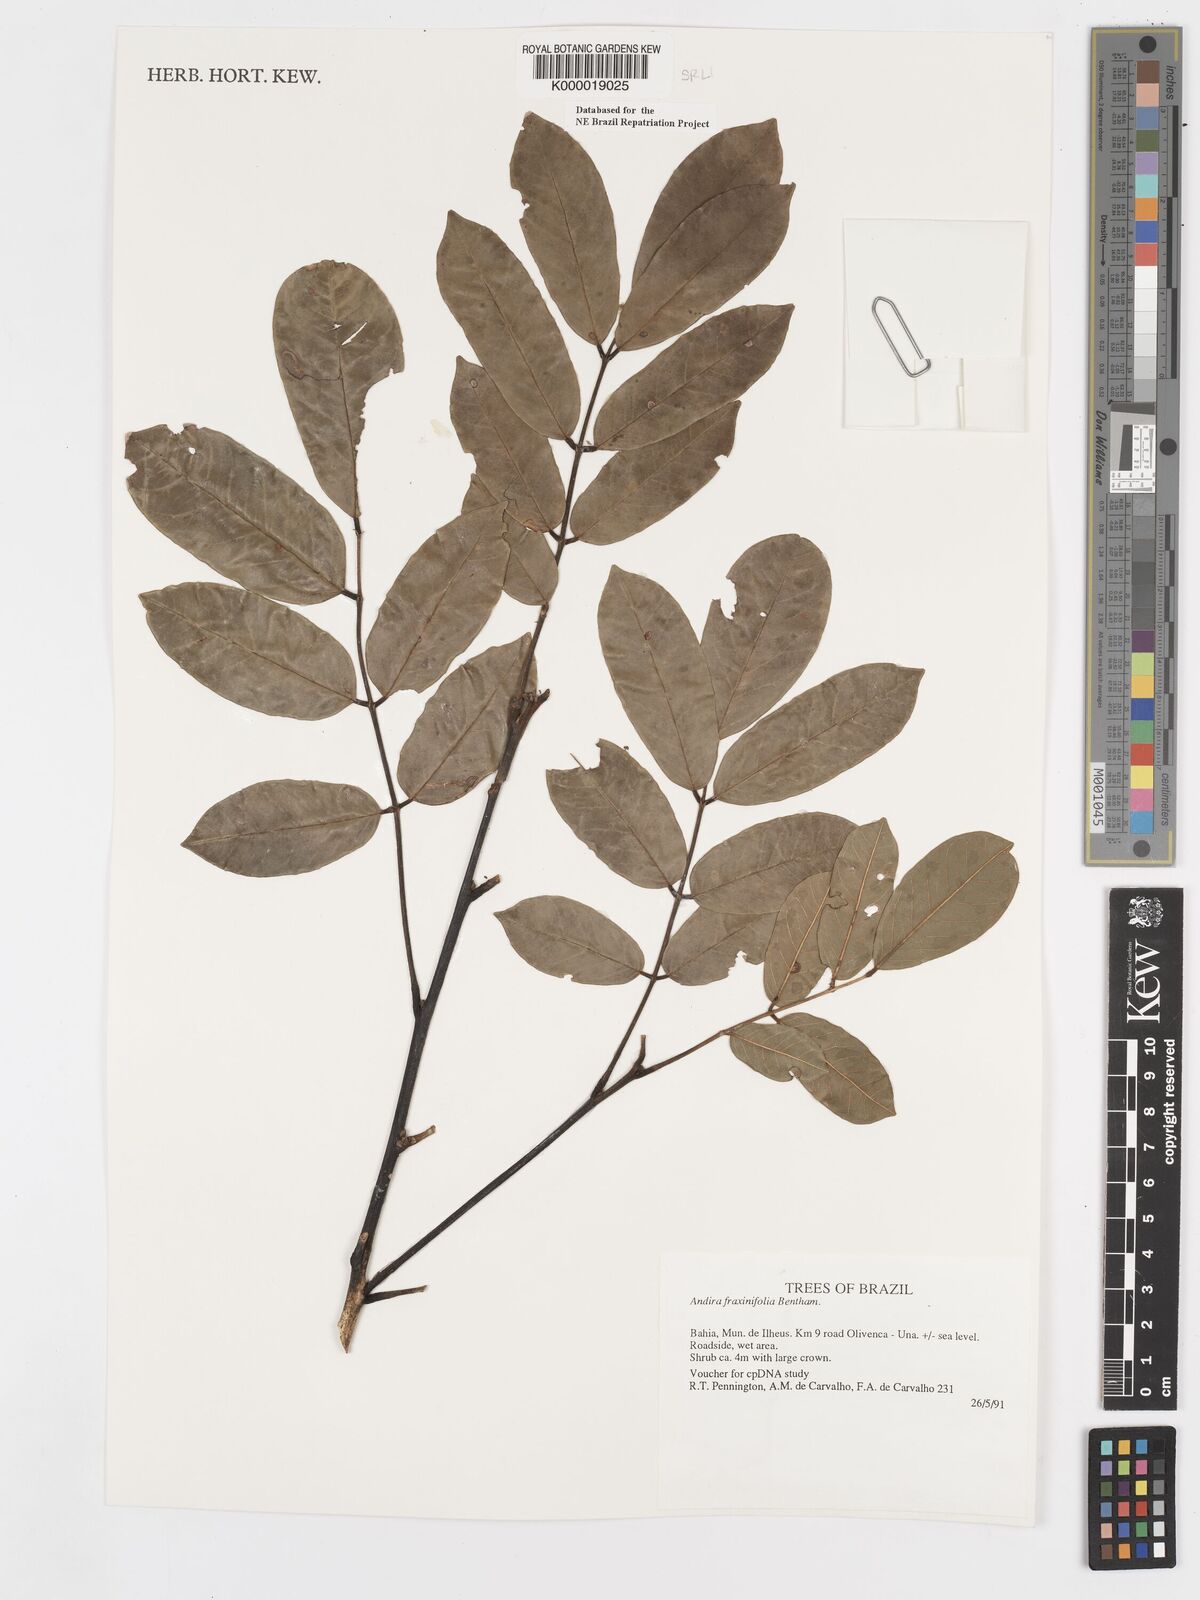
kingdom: Plantae
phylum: Tracheophyta
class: Magnoliopsida
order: Fabales
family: Fabaceae
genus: Andira
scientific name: Andira fraxinifolia
